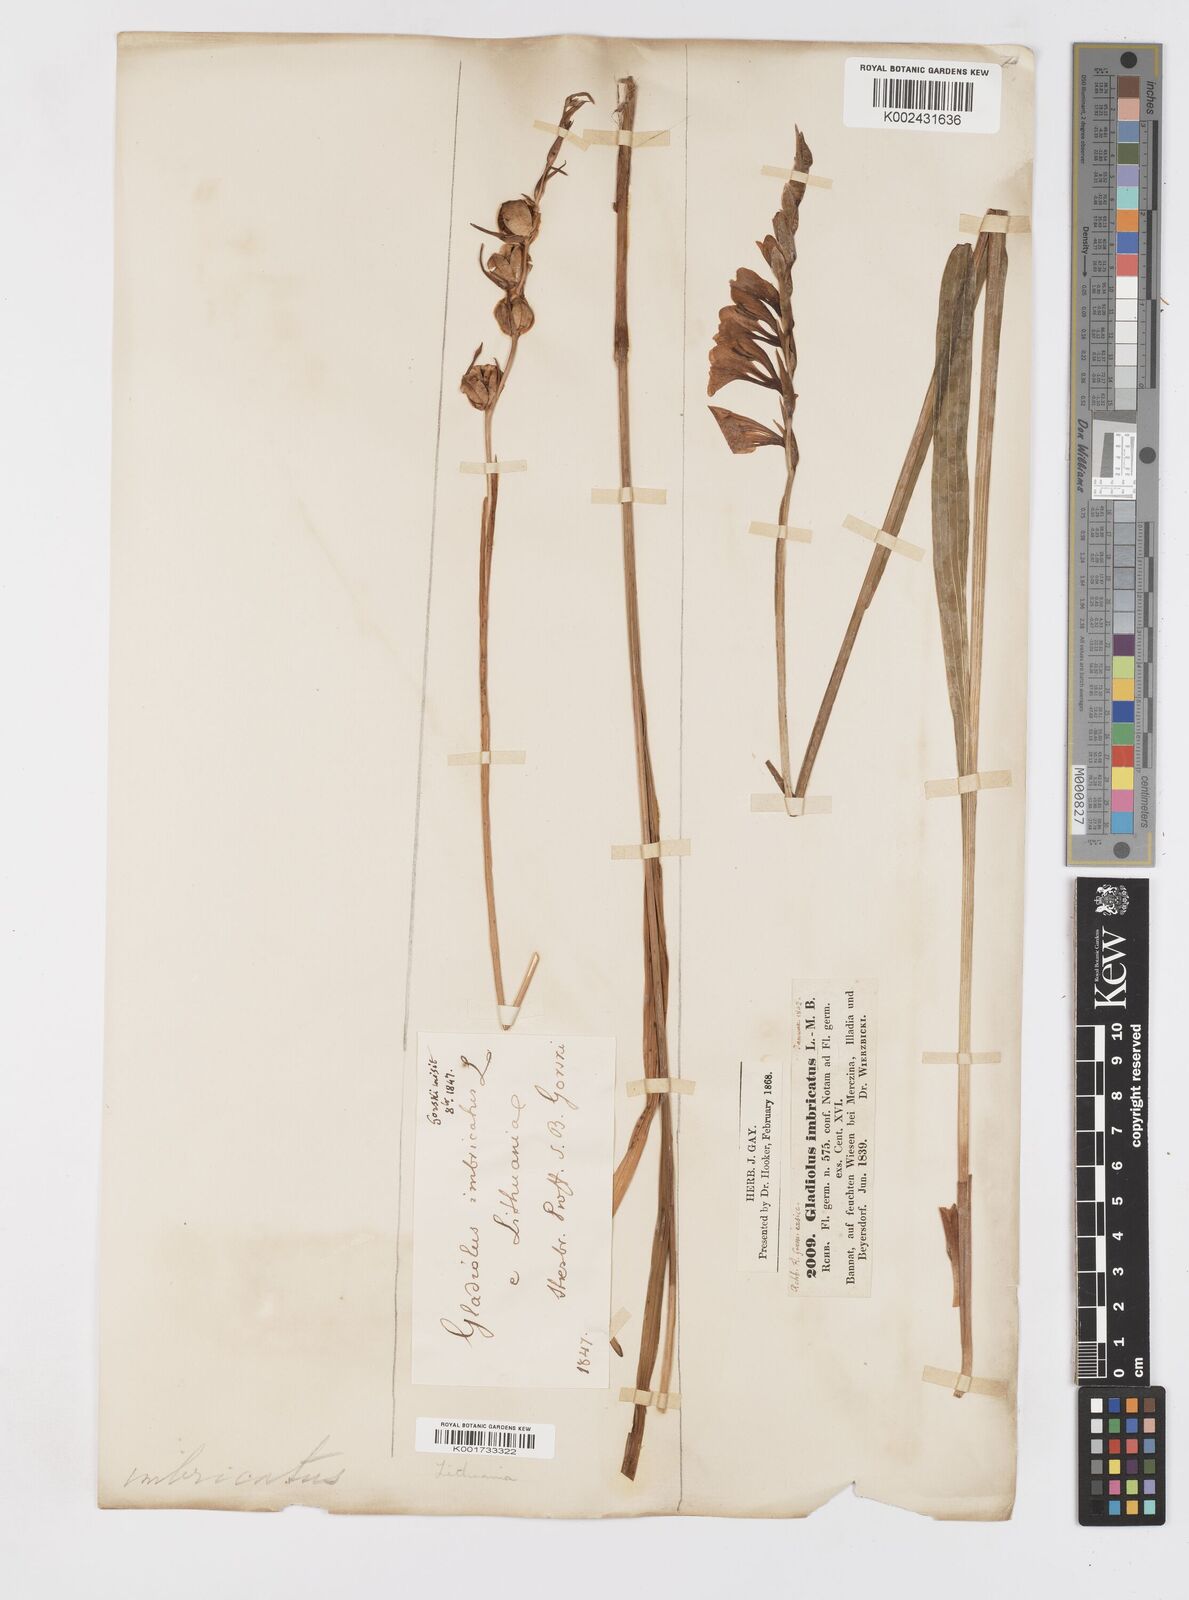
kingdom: Plantae
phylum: Tracheophyta
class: Liliopsida
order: Asparagales
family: Iridaceae
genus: Gladiolus
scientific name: Gladiolus imbricatus
